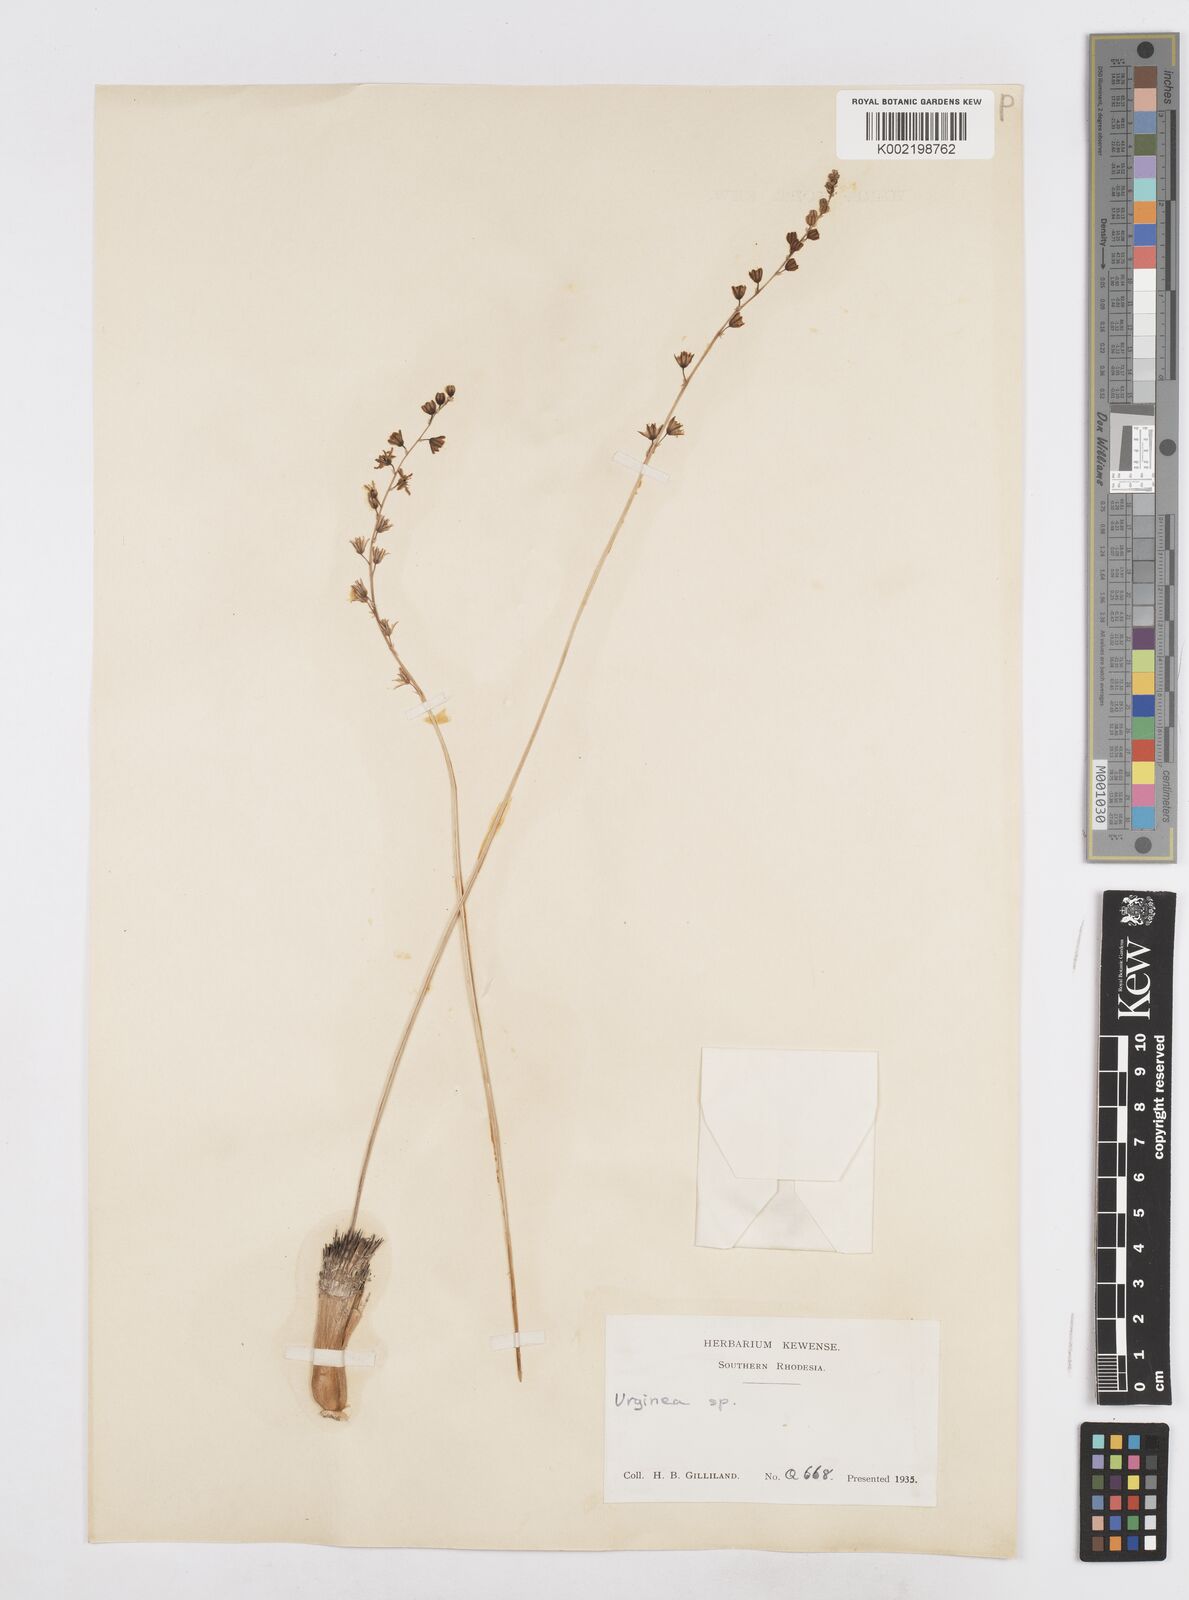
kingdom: Plantae
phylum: Tracheophyta
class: Liliopsida
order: Asparagales
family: Asparagaceae
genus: Drimia
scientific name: Drimia multisetosa
